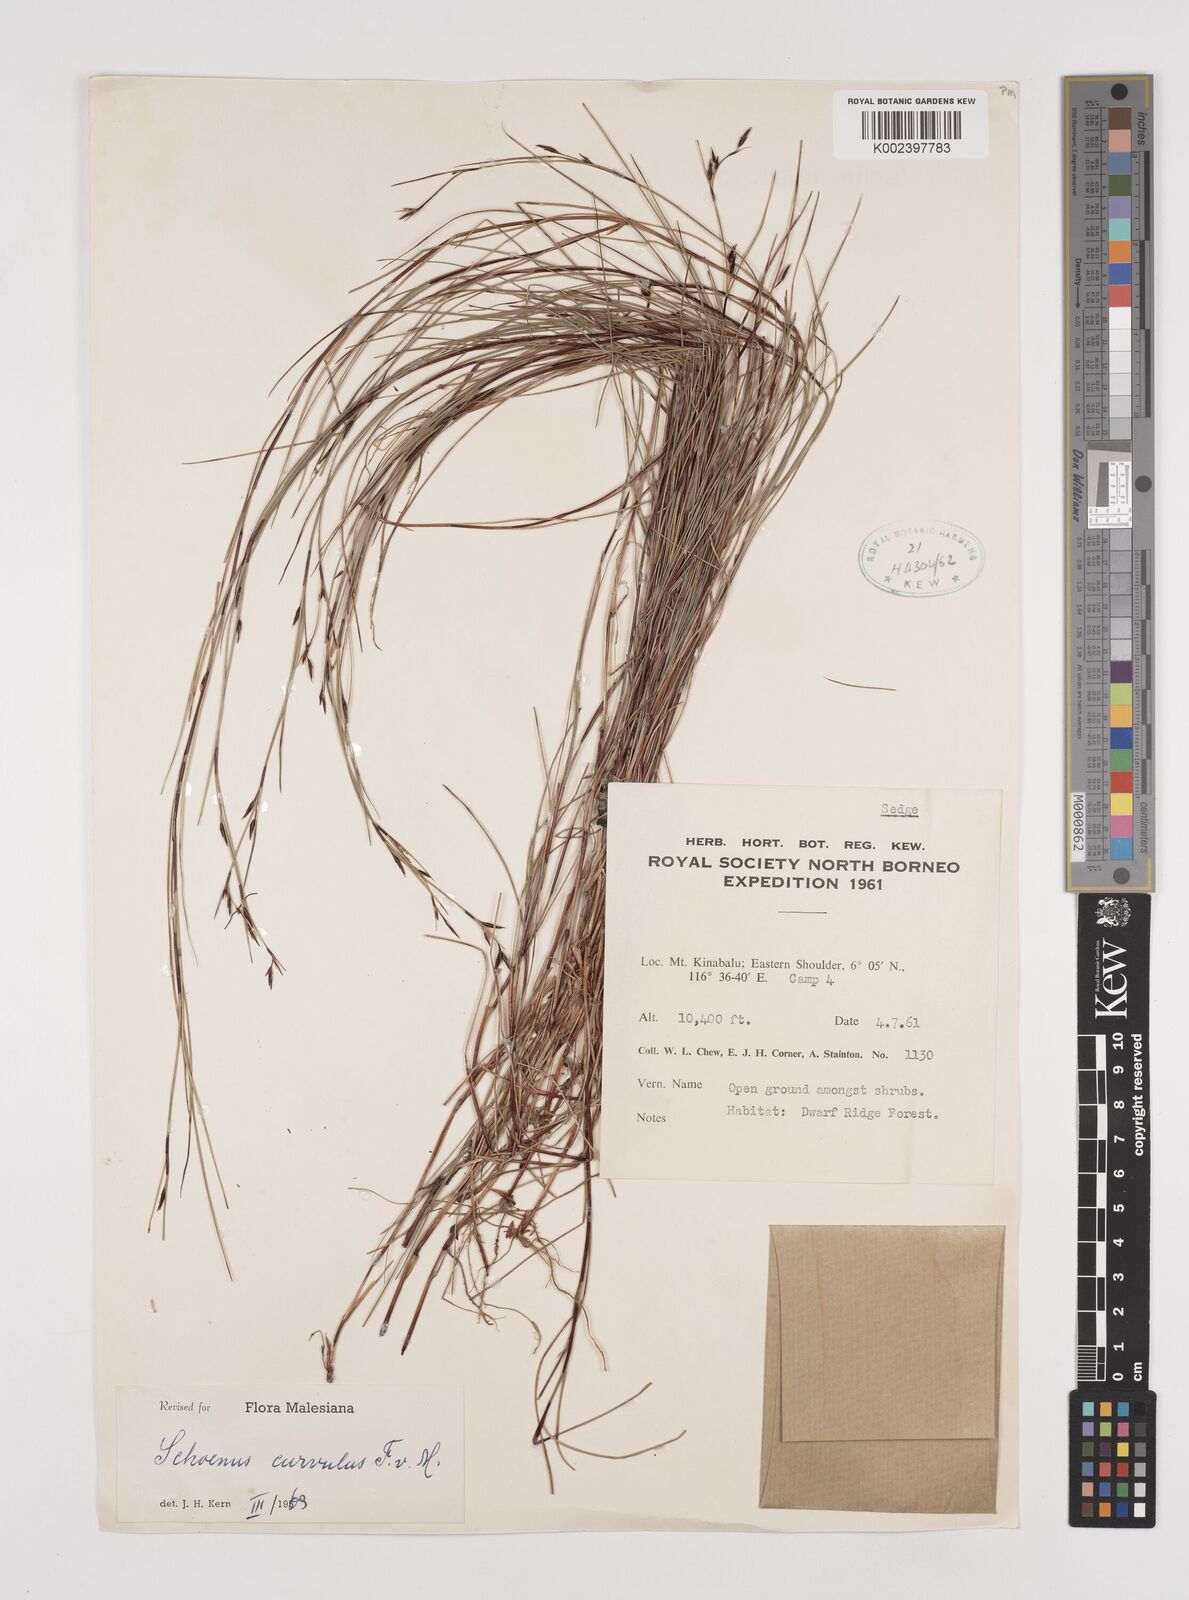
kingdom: Plantae
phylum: Tracheophyta
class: Liliopsida
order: Poales
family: Cyperaceae
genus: Schoenus
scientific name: Schoenus curvulus
